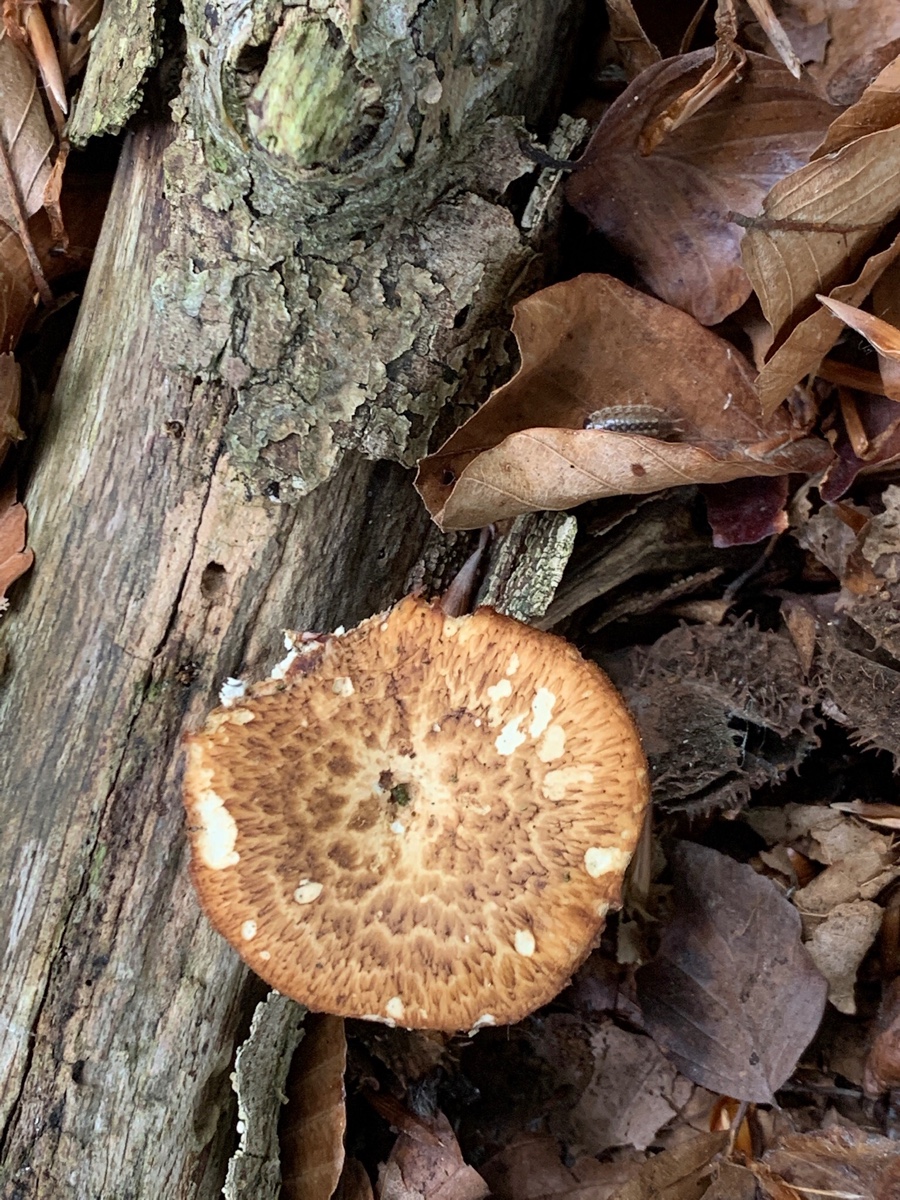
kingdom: Fungi
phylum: Basidiomycota
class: Agaricomycetes
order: Polyporales
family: Polyporaceae
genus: Polyporus
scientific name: Polyporus tuberaster
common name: knoldet stilkporesvamp
